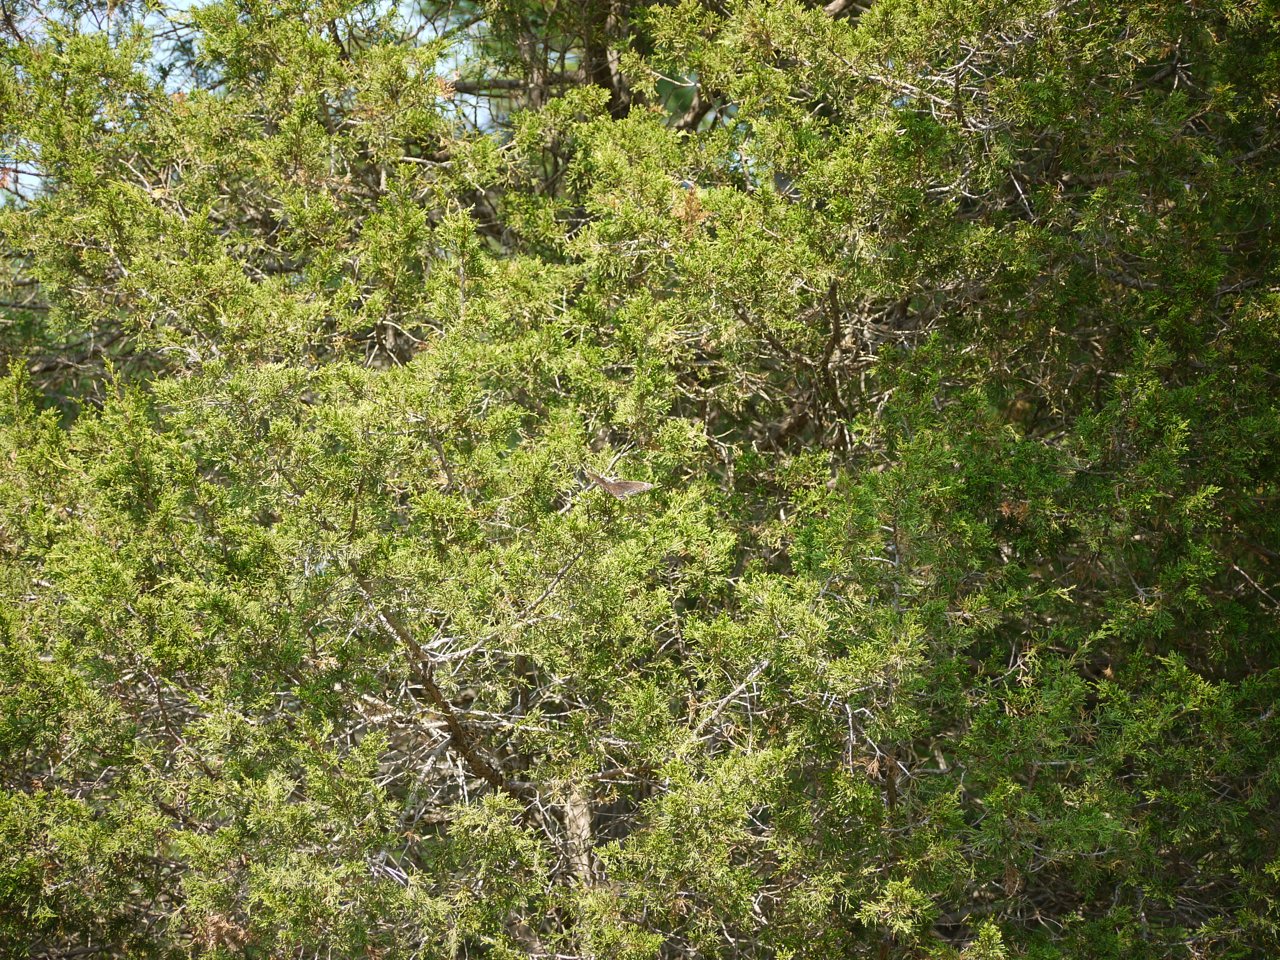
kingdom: Animalia
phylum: Arthropoda
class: Insecta
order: Lepidoptera
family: Papilionidae
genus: Papilio
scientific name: Papilio polyxenes
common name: Black Swallowtail
